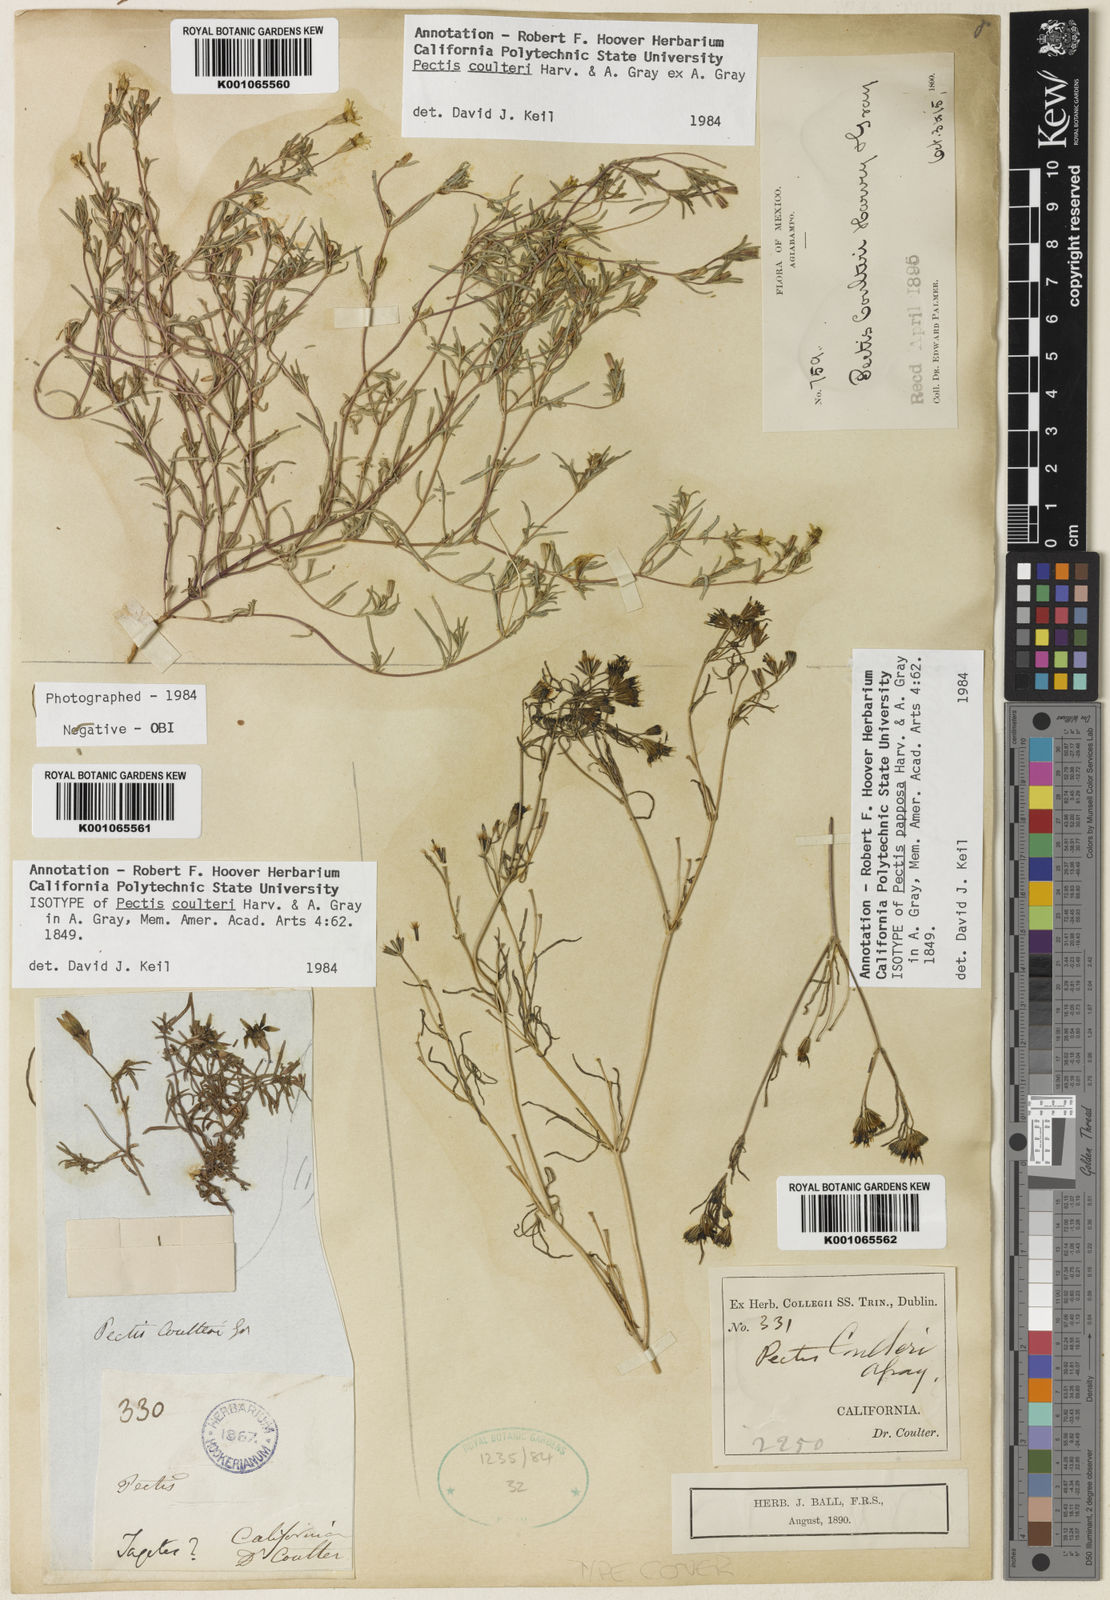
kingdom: Plantae
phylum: Tracheophyta
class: Magnoliopsida
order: Asterales
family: Asteraceae
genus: Pectis
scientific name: Pectis coulteri
